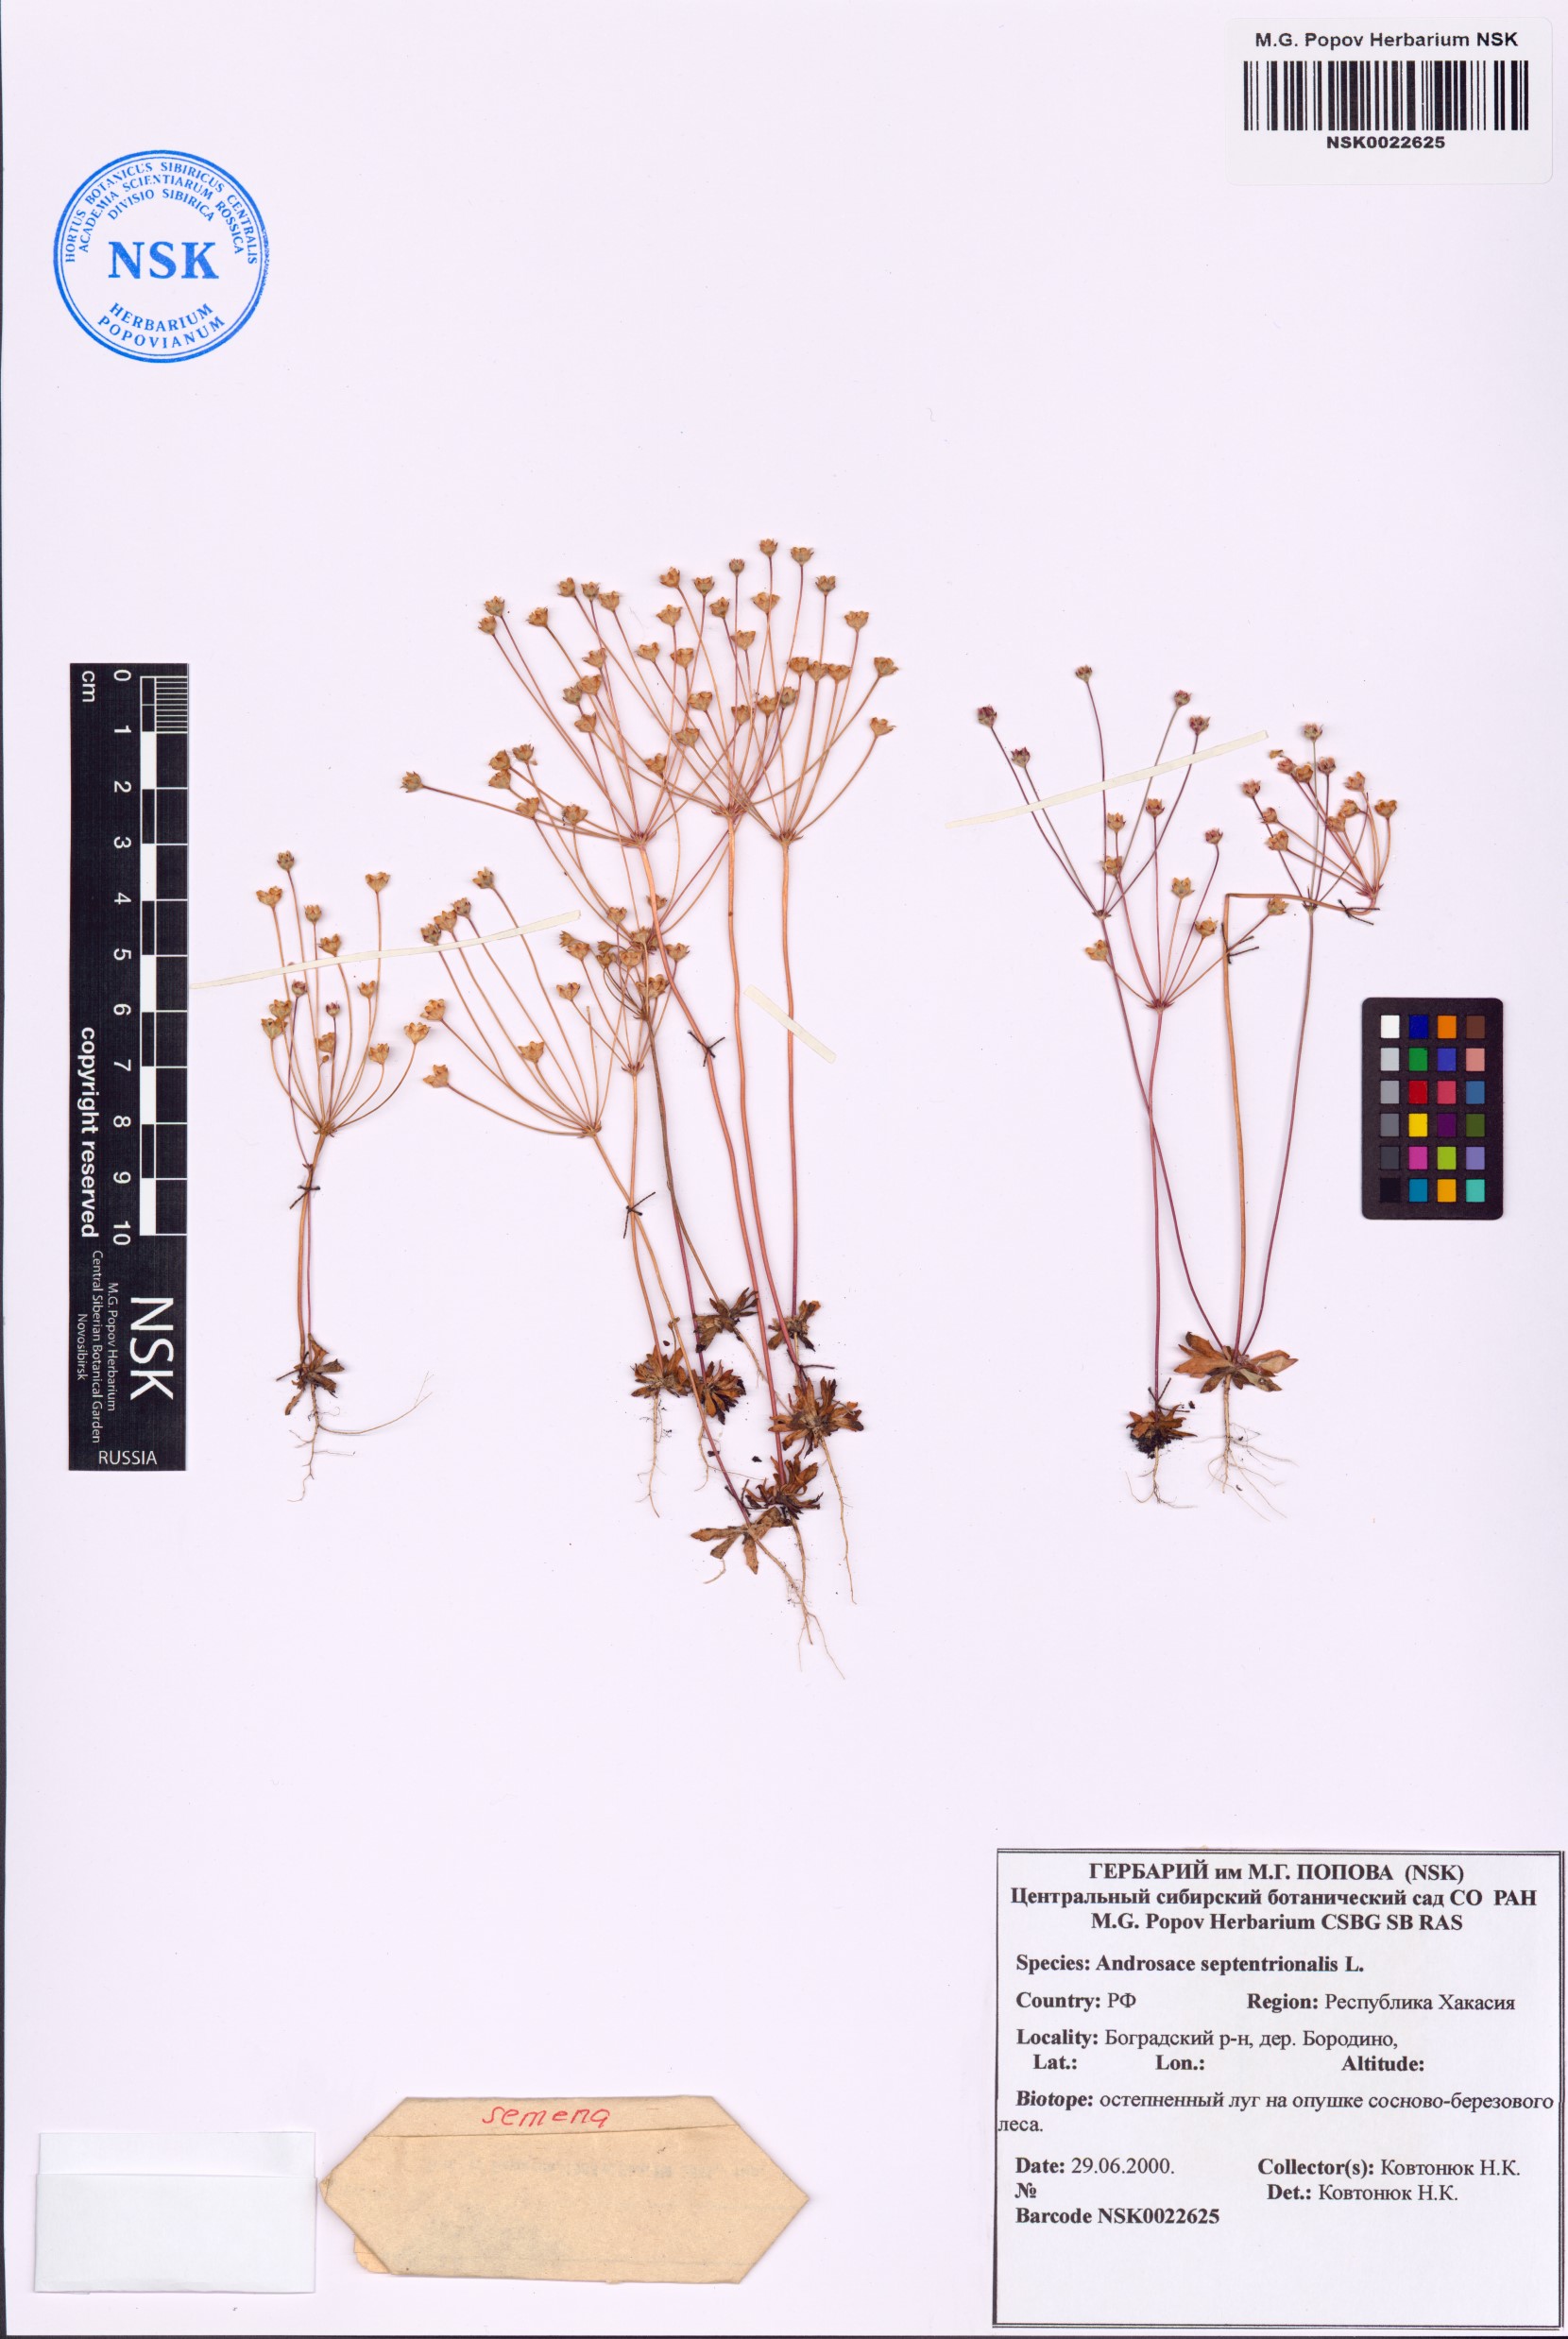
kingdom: Plantae
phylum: Tracheophyta
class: Magnoliopsida
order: Ericales
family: Primulaceae
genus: Androsace
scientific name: Androsace septentrionalis
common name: Hairy northern fairy-candelabra
